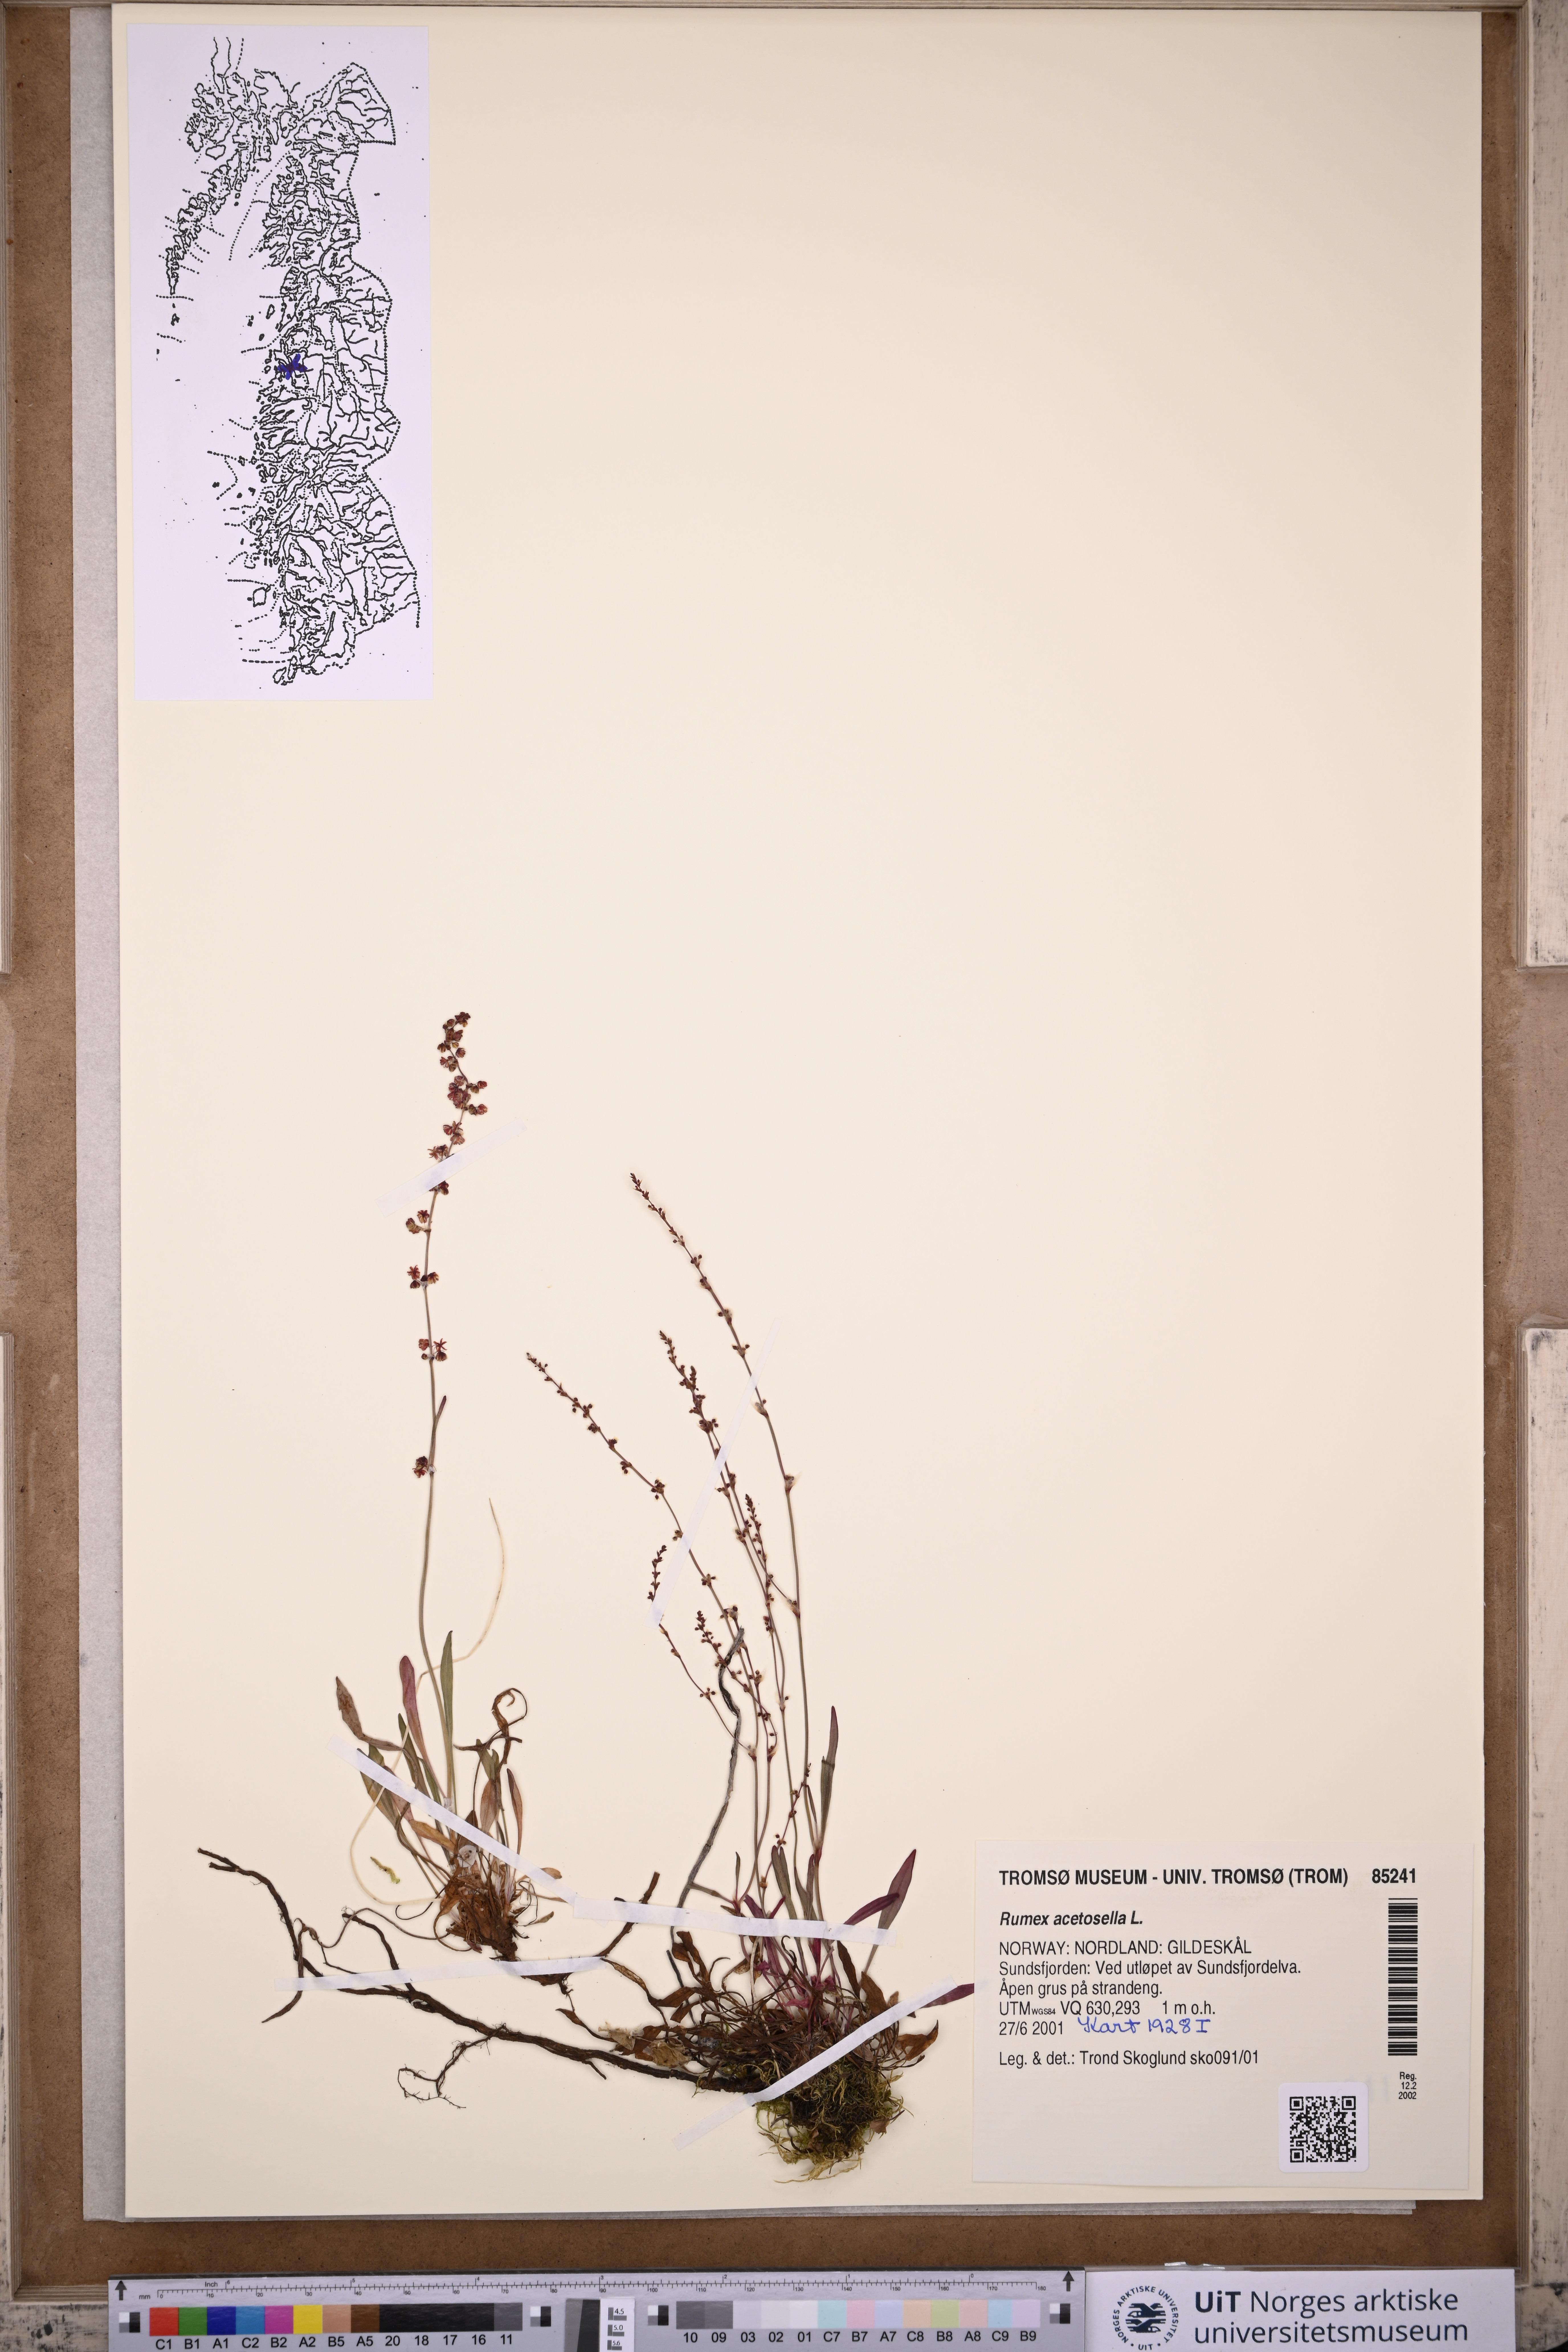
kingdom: Plantae
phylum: Tracheophyta
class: Magnoliopsida
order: Caryophyllales
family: Polygonaceae
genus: Rumex
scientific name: Rumex acetosella
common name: Common sheep sorrel
